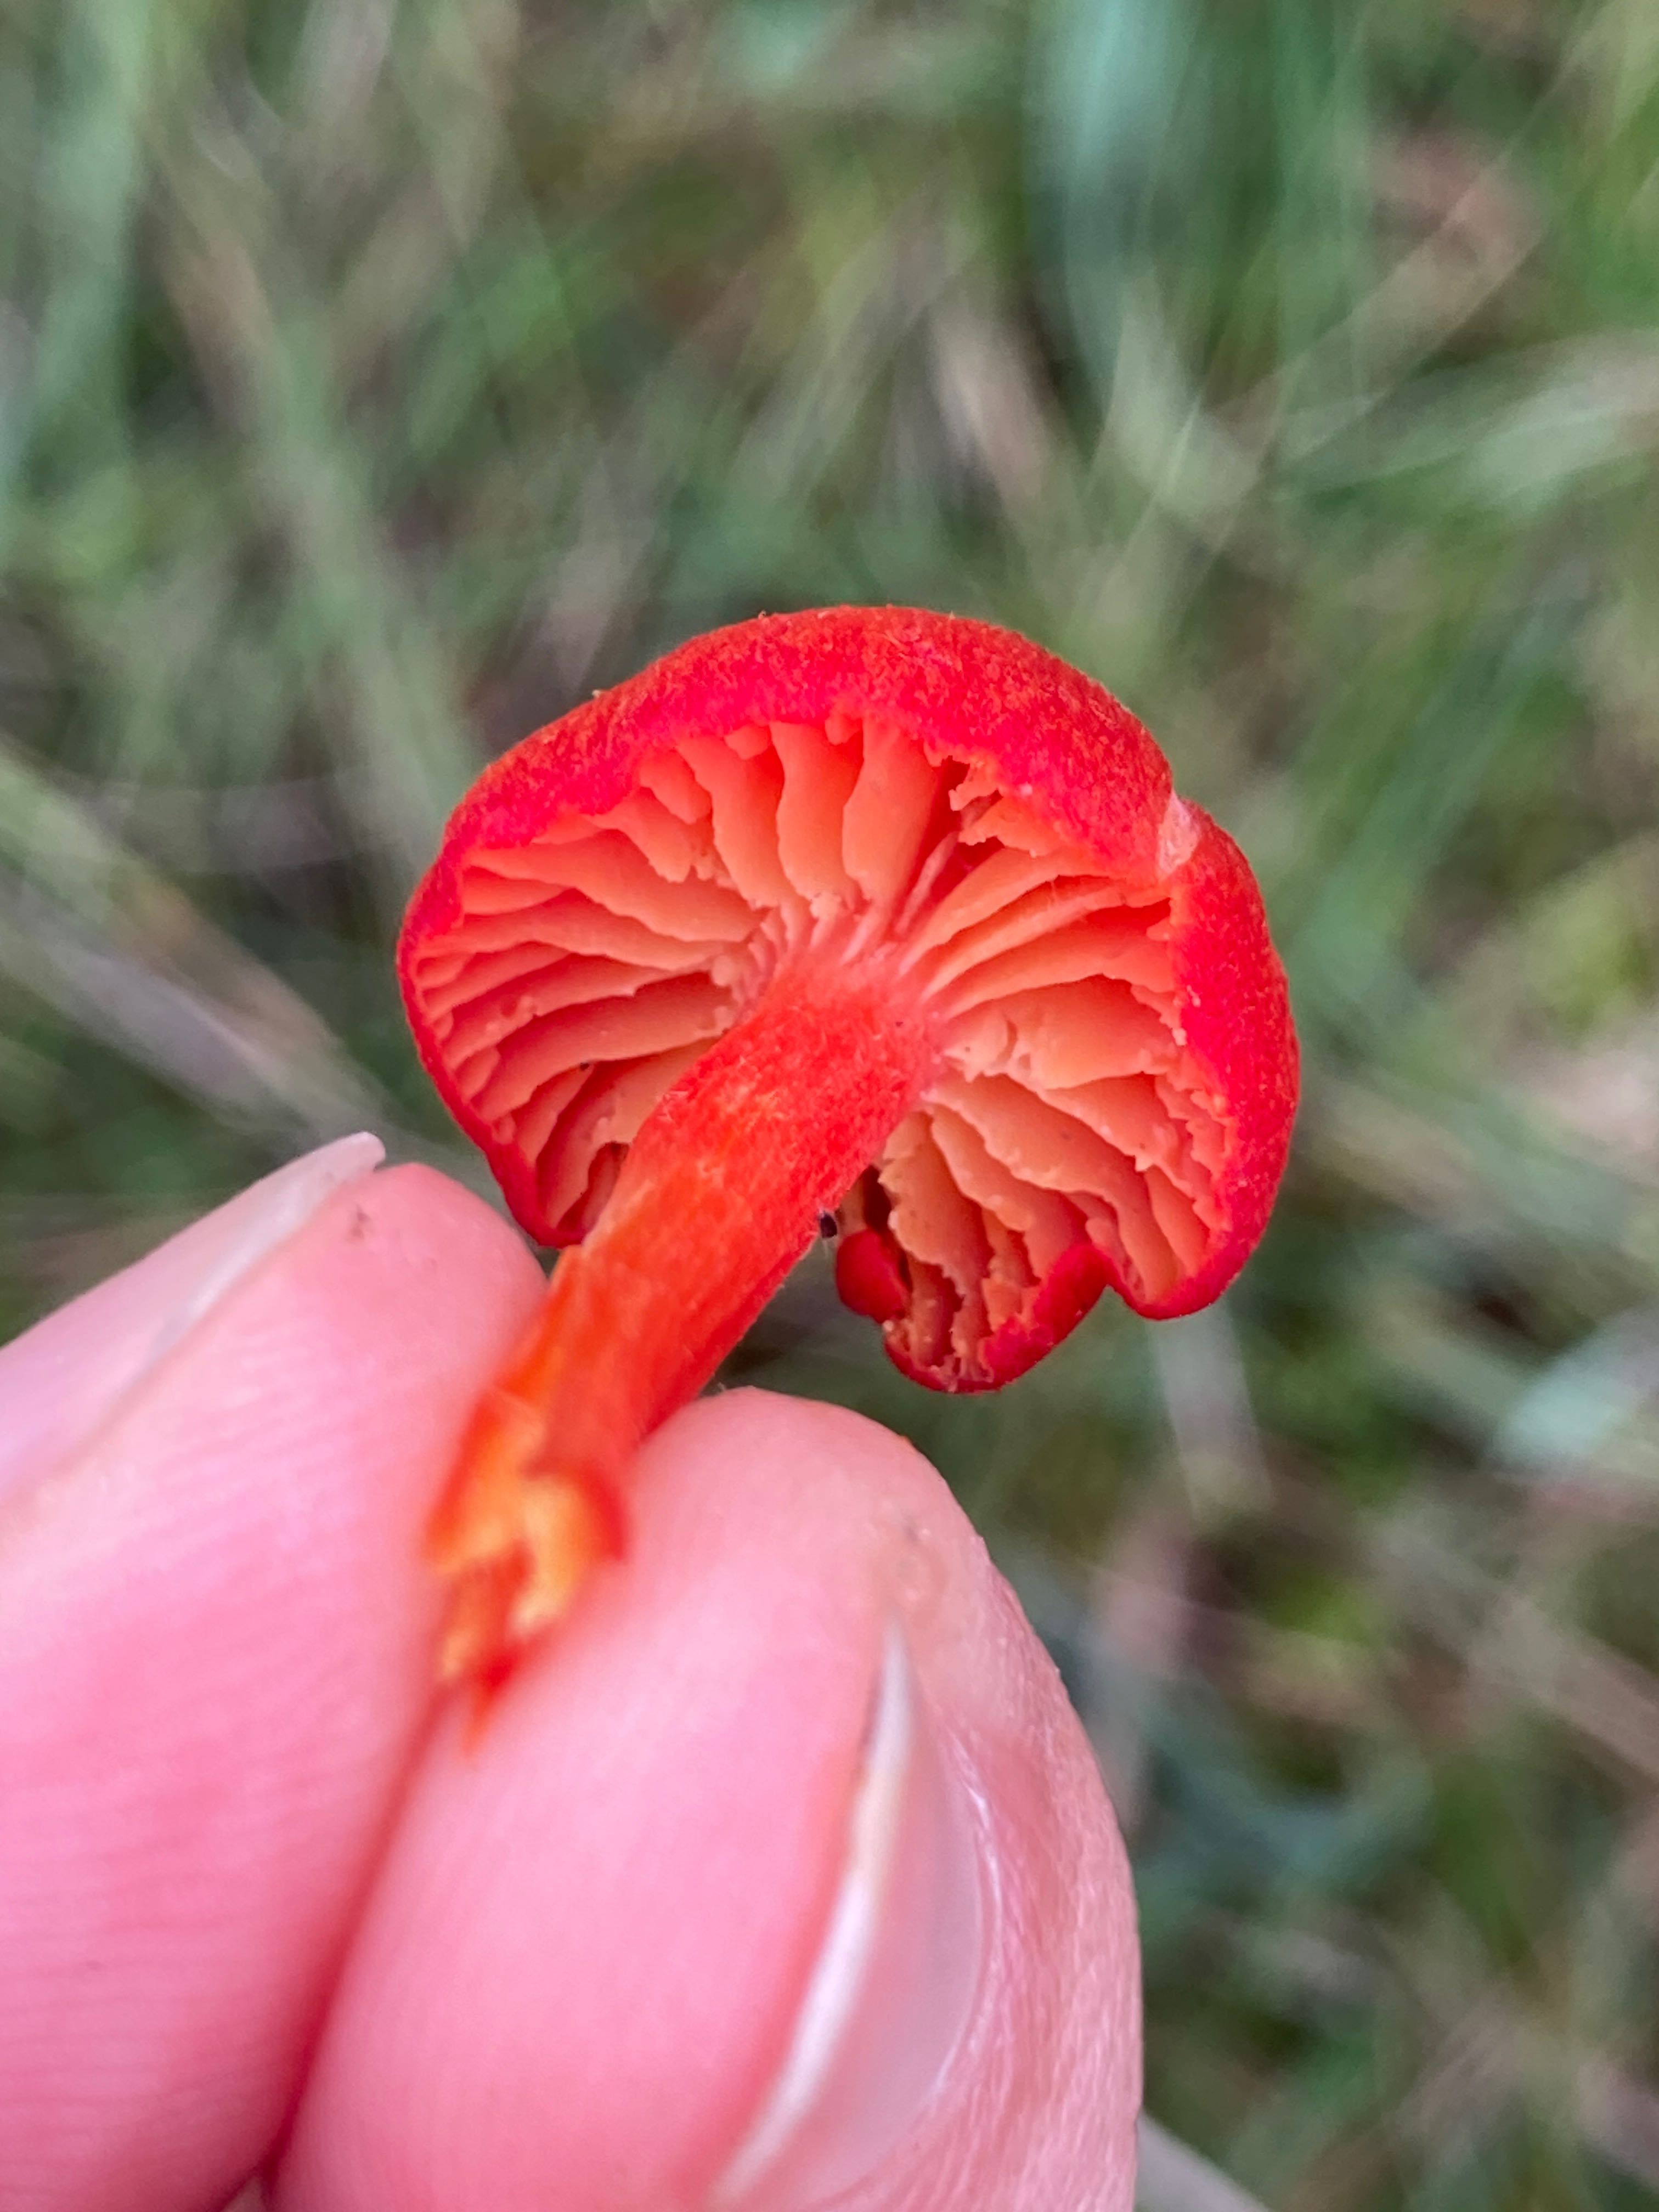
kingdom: Fungi
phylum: Basidiomycota
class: Agaricomycetes
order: Agaricales
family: Hygrophoraceae
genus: Hygrocybe
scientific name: Hygrocybe miniata
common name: mønje-vokshat
